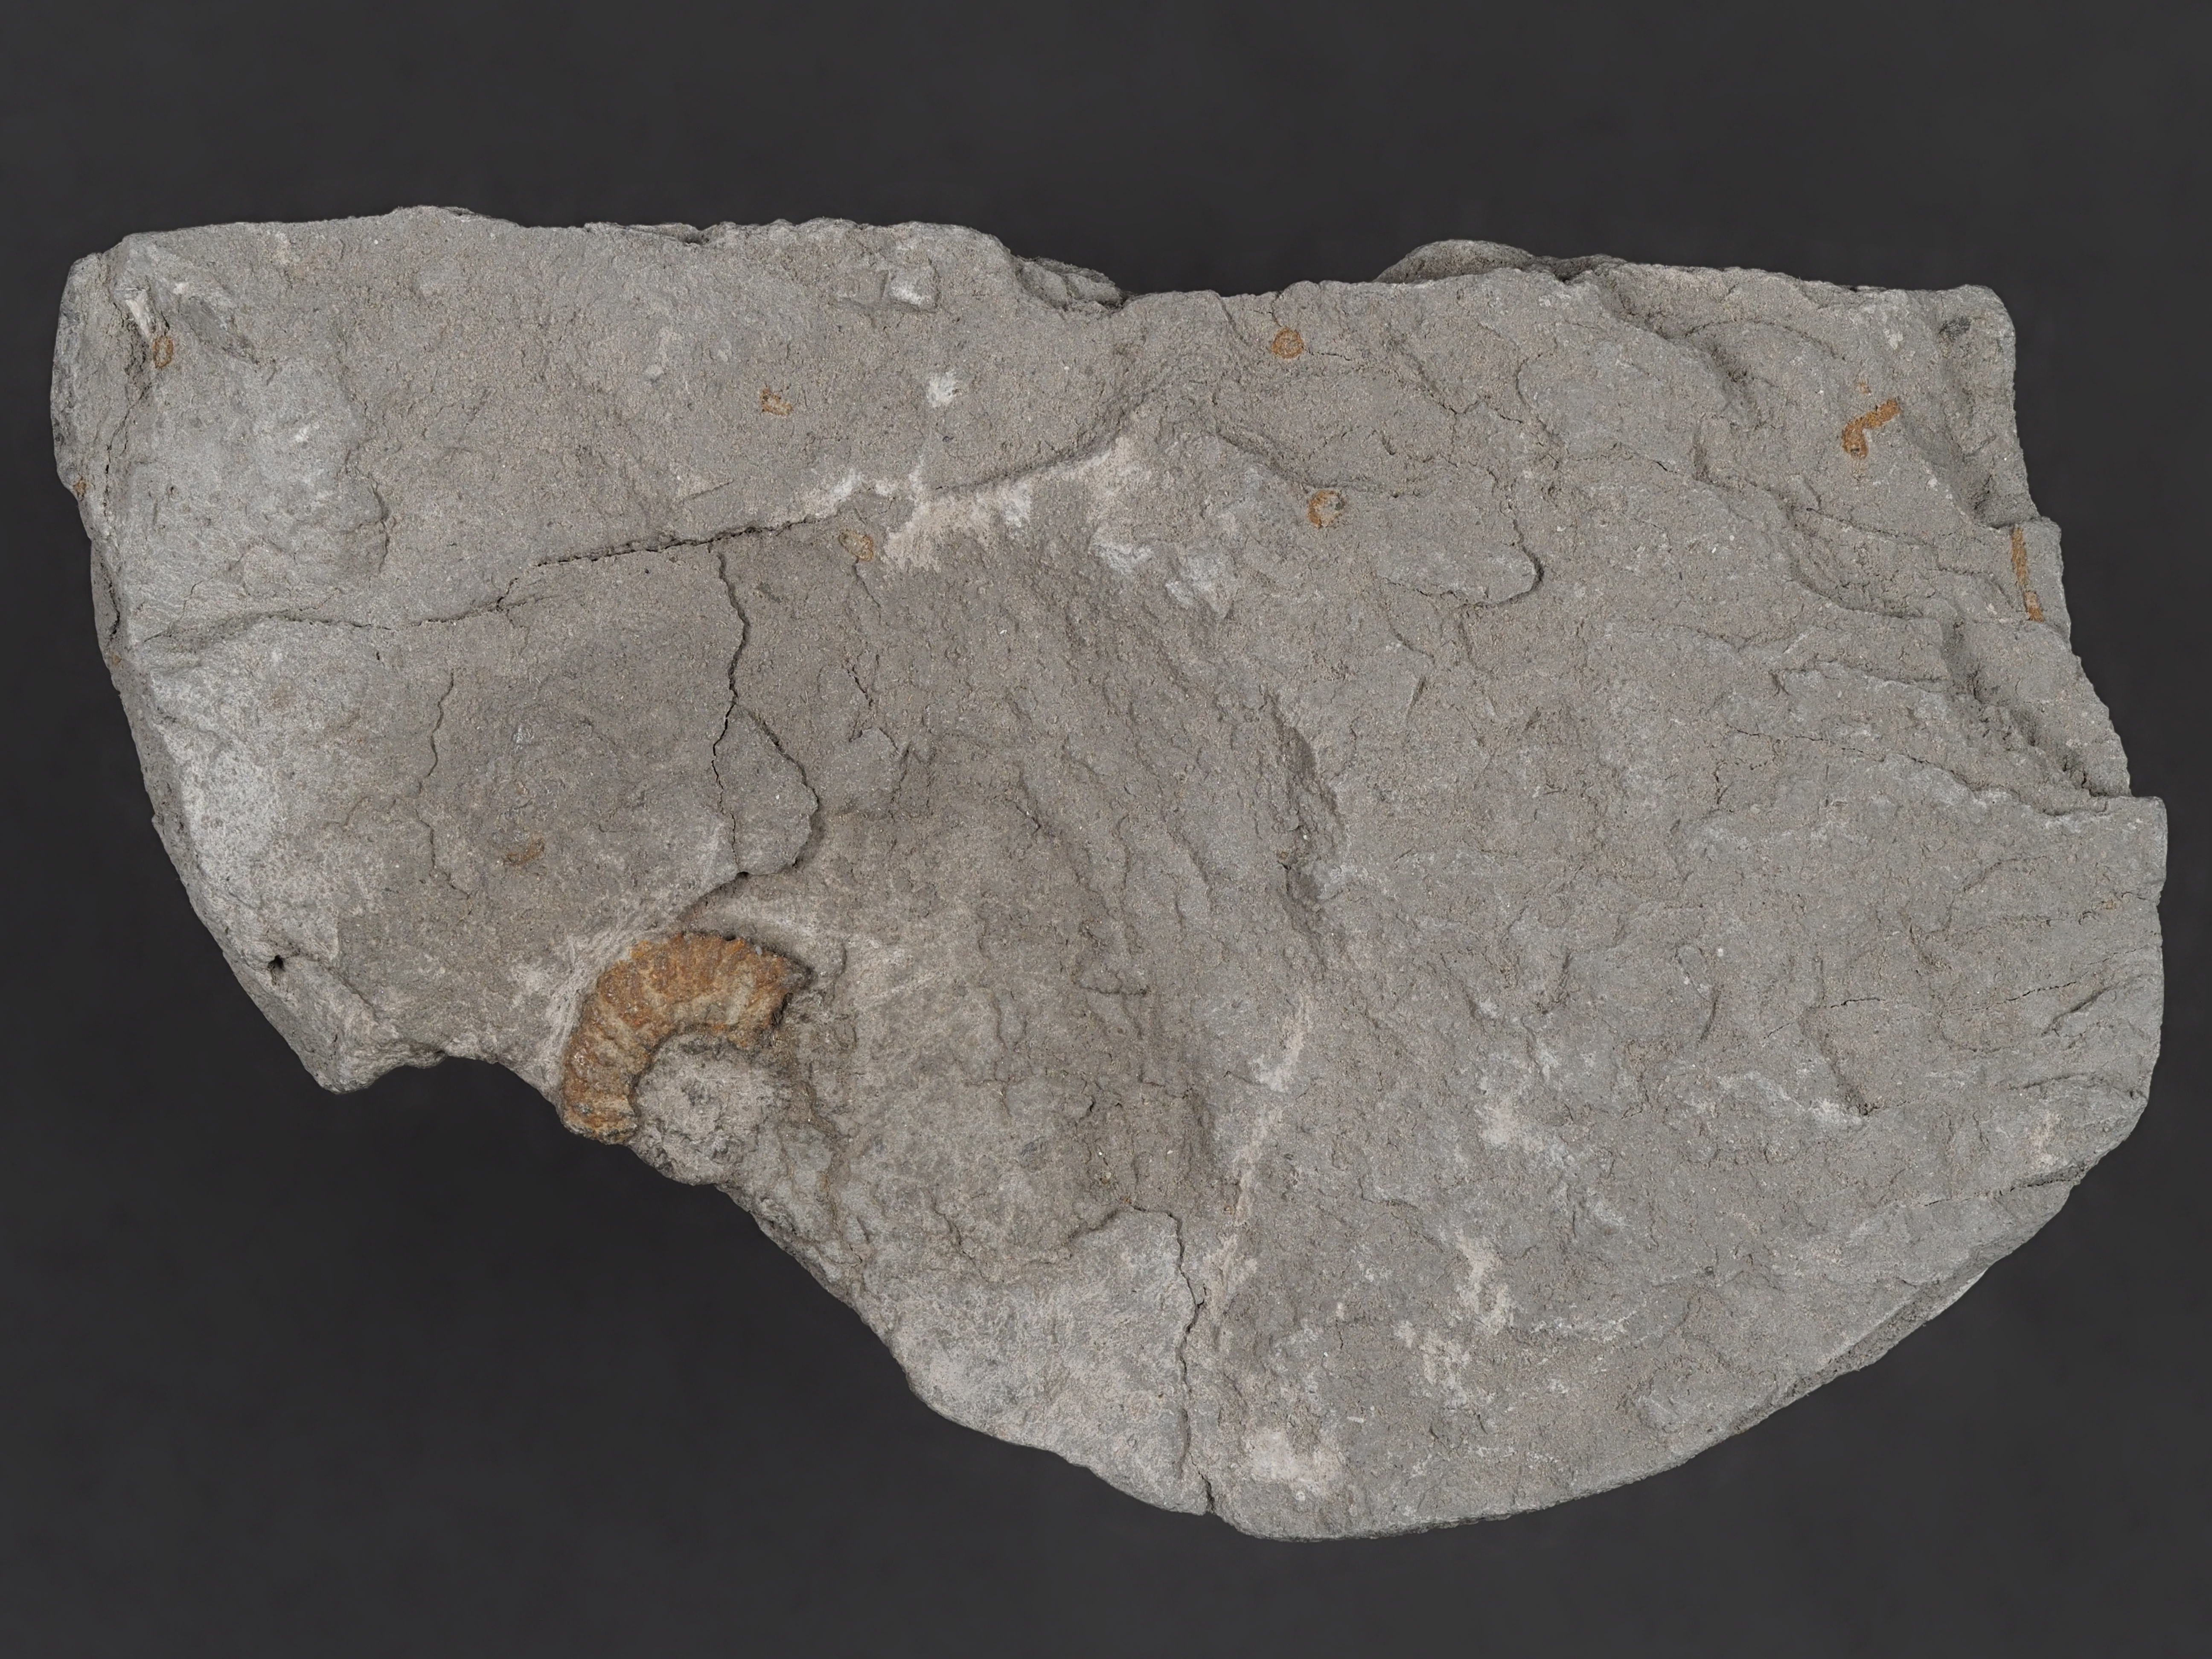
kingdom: Animalia
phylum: Mollusca
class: Cephalopoda
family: Schlotheimiidae
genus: Schlotheimia
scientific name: Schlotheimia phobetica
